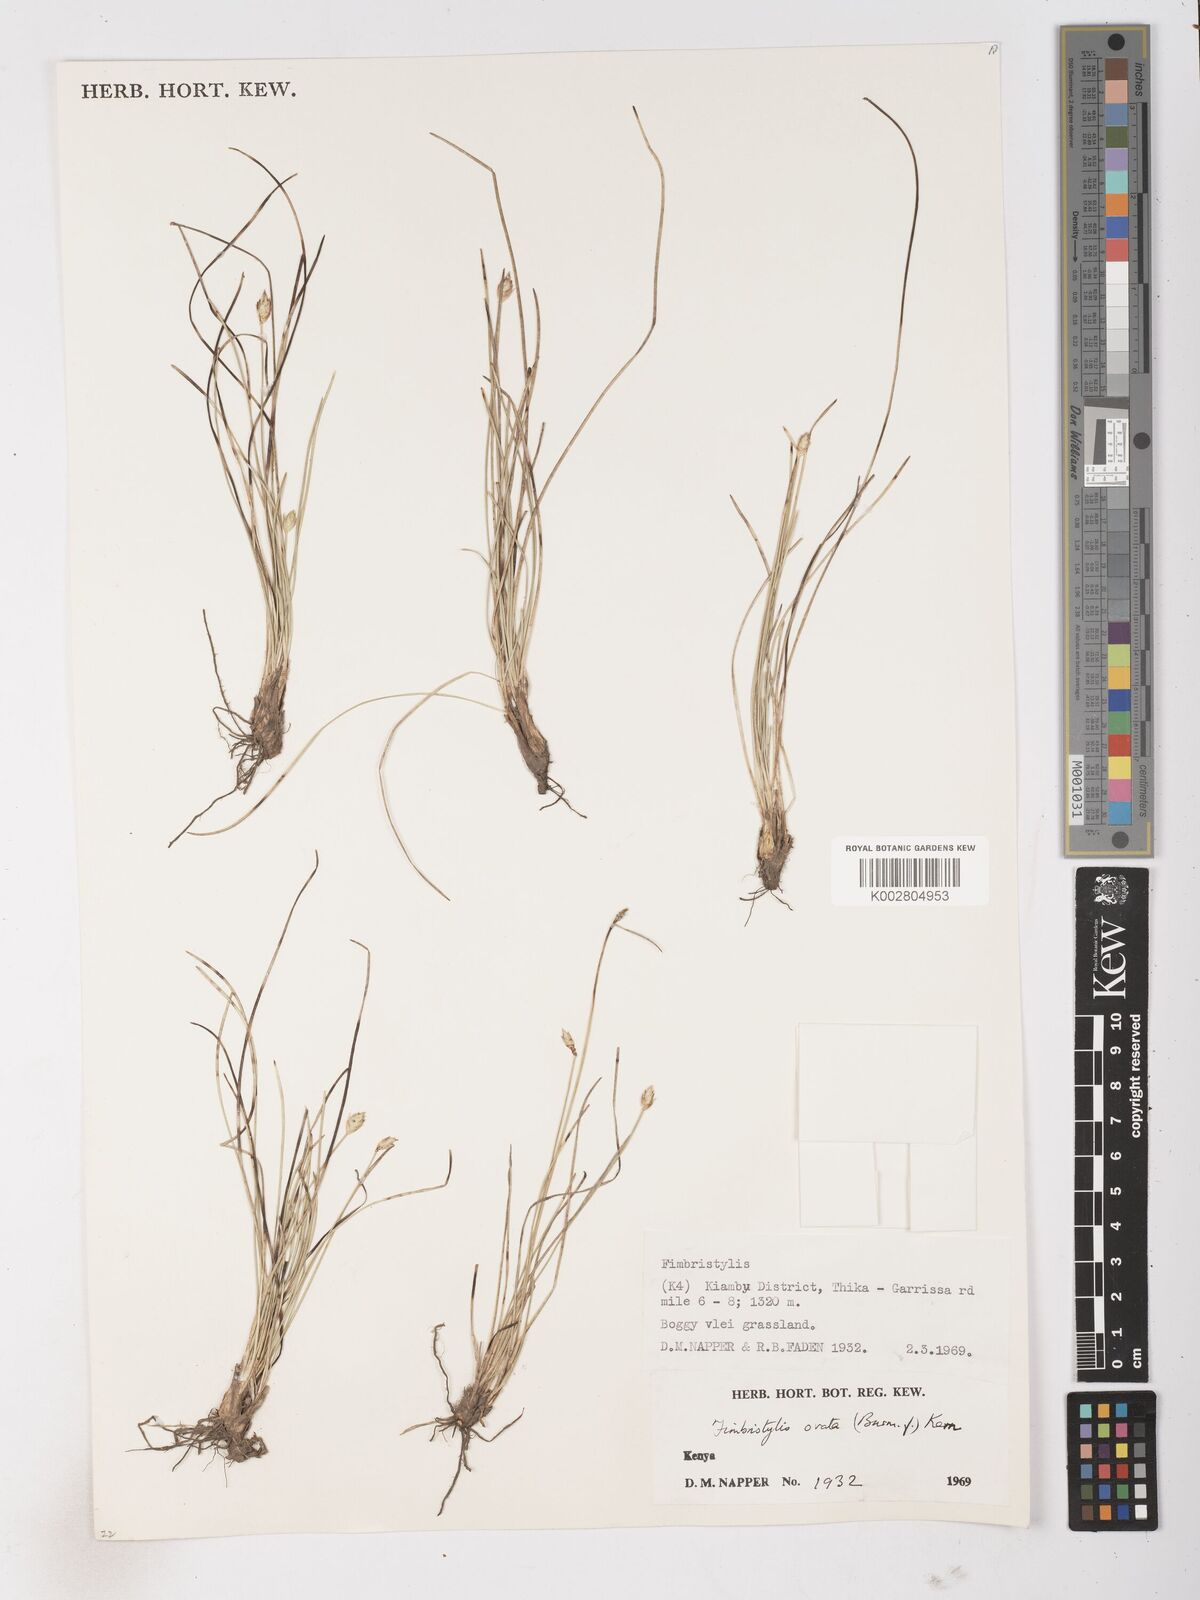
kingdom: Plantae
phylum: Tracheophyta
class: Liliopsida
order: Poales
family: Cyperaceae
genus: Abildgaardia
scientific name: Abildgaardia ovata
